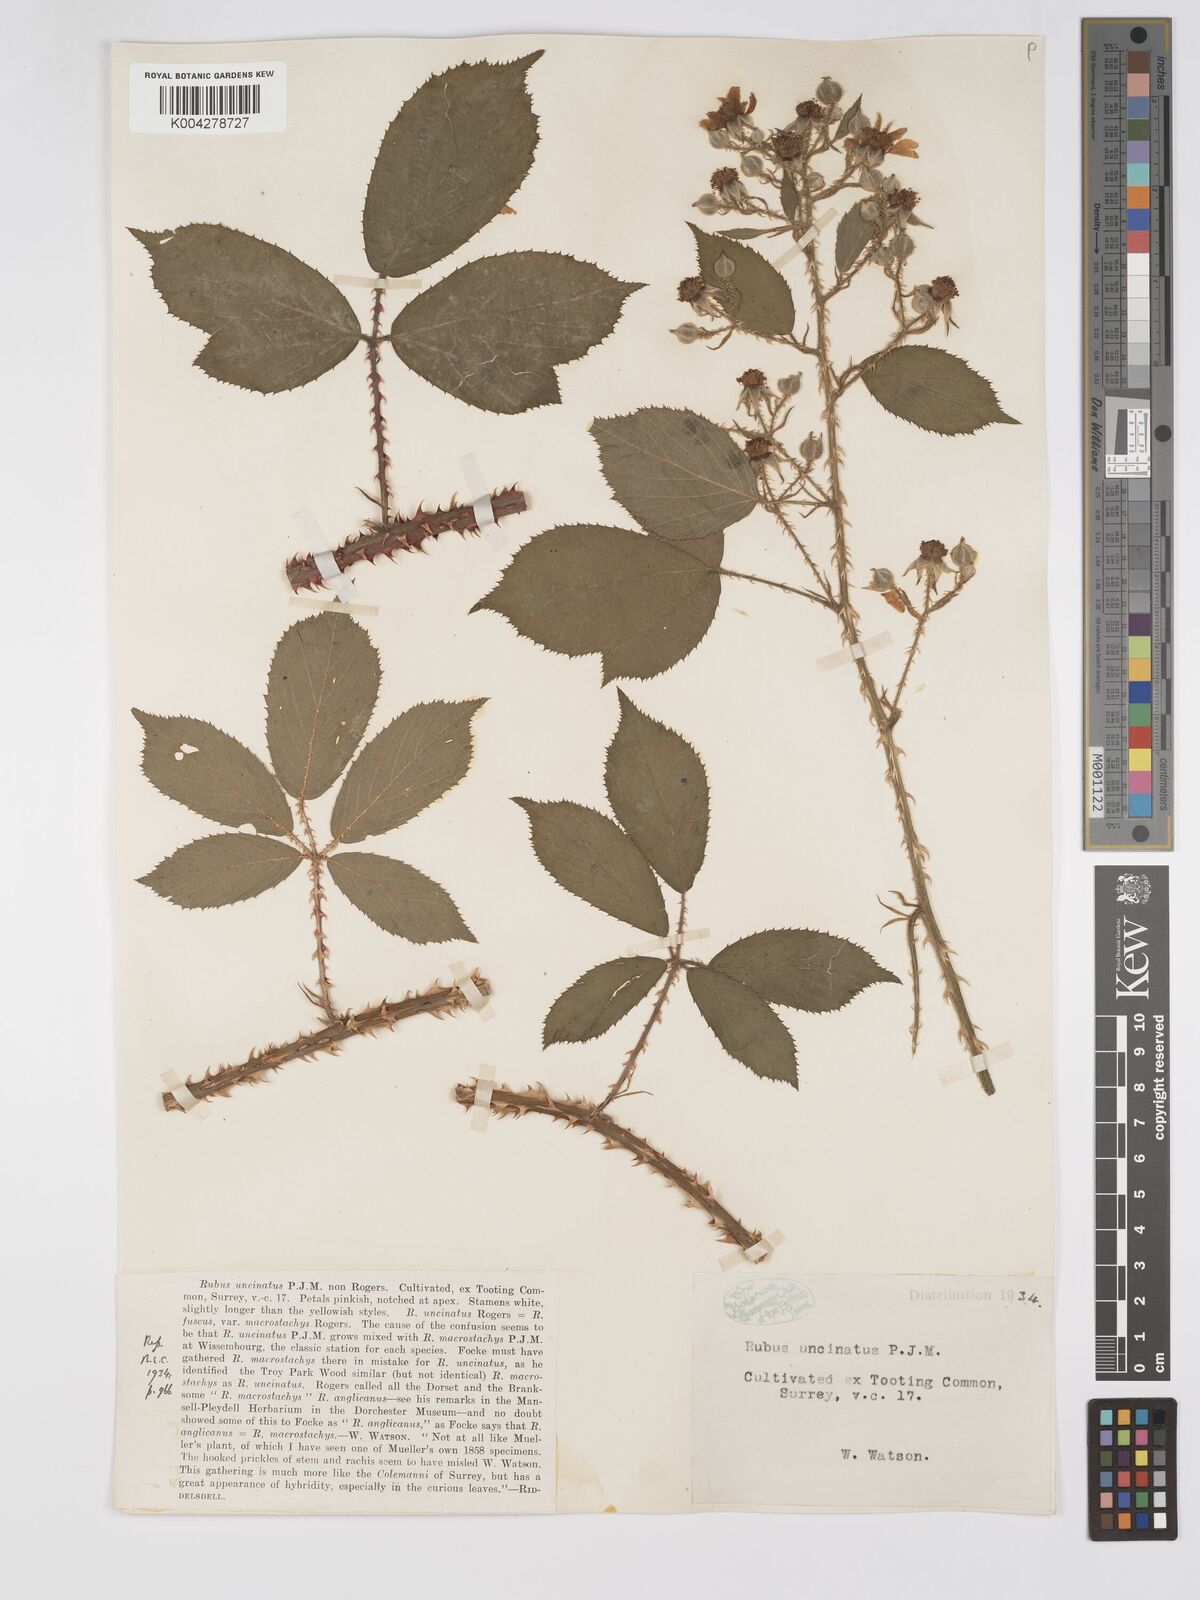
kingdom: Plantae
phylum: Tracheophyta
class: Magnoliopsida
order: Rosales
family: Rosaceae
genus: Rubus
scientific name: Rubus uncinatus
